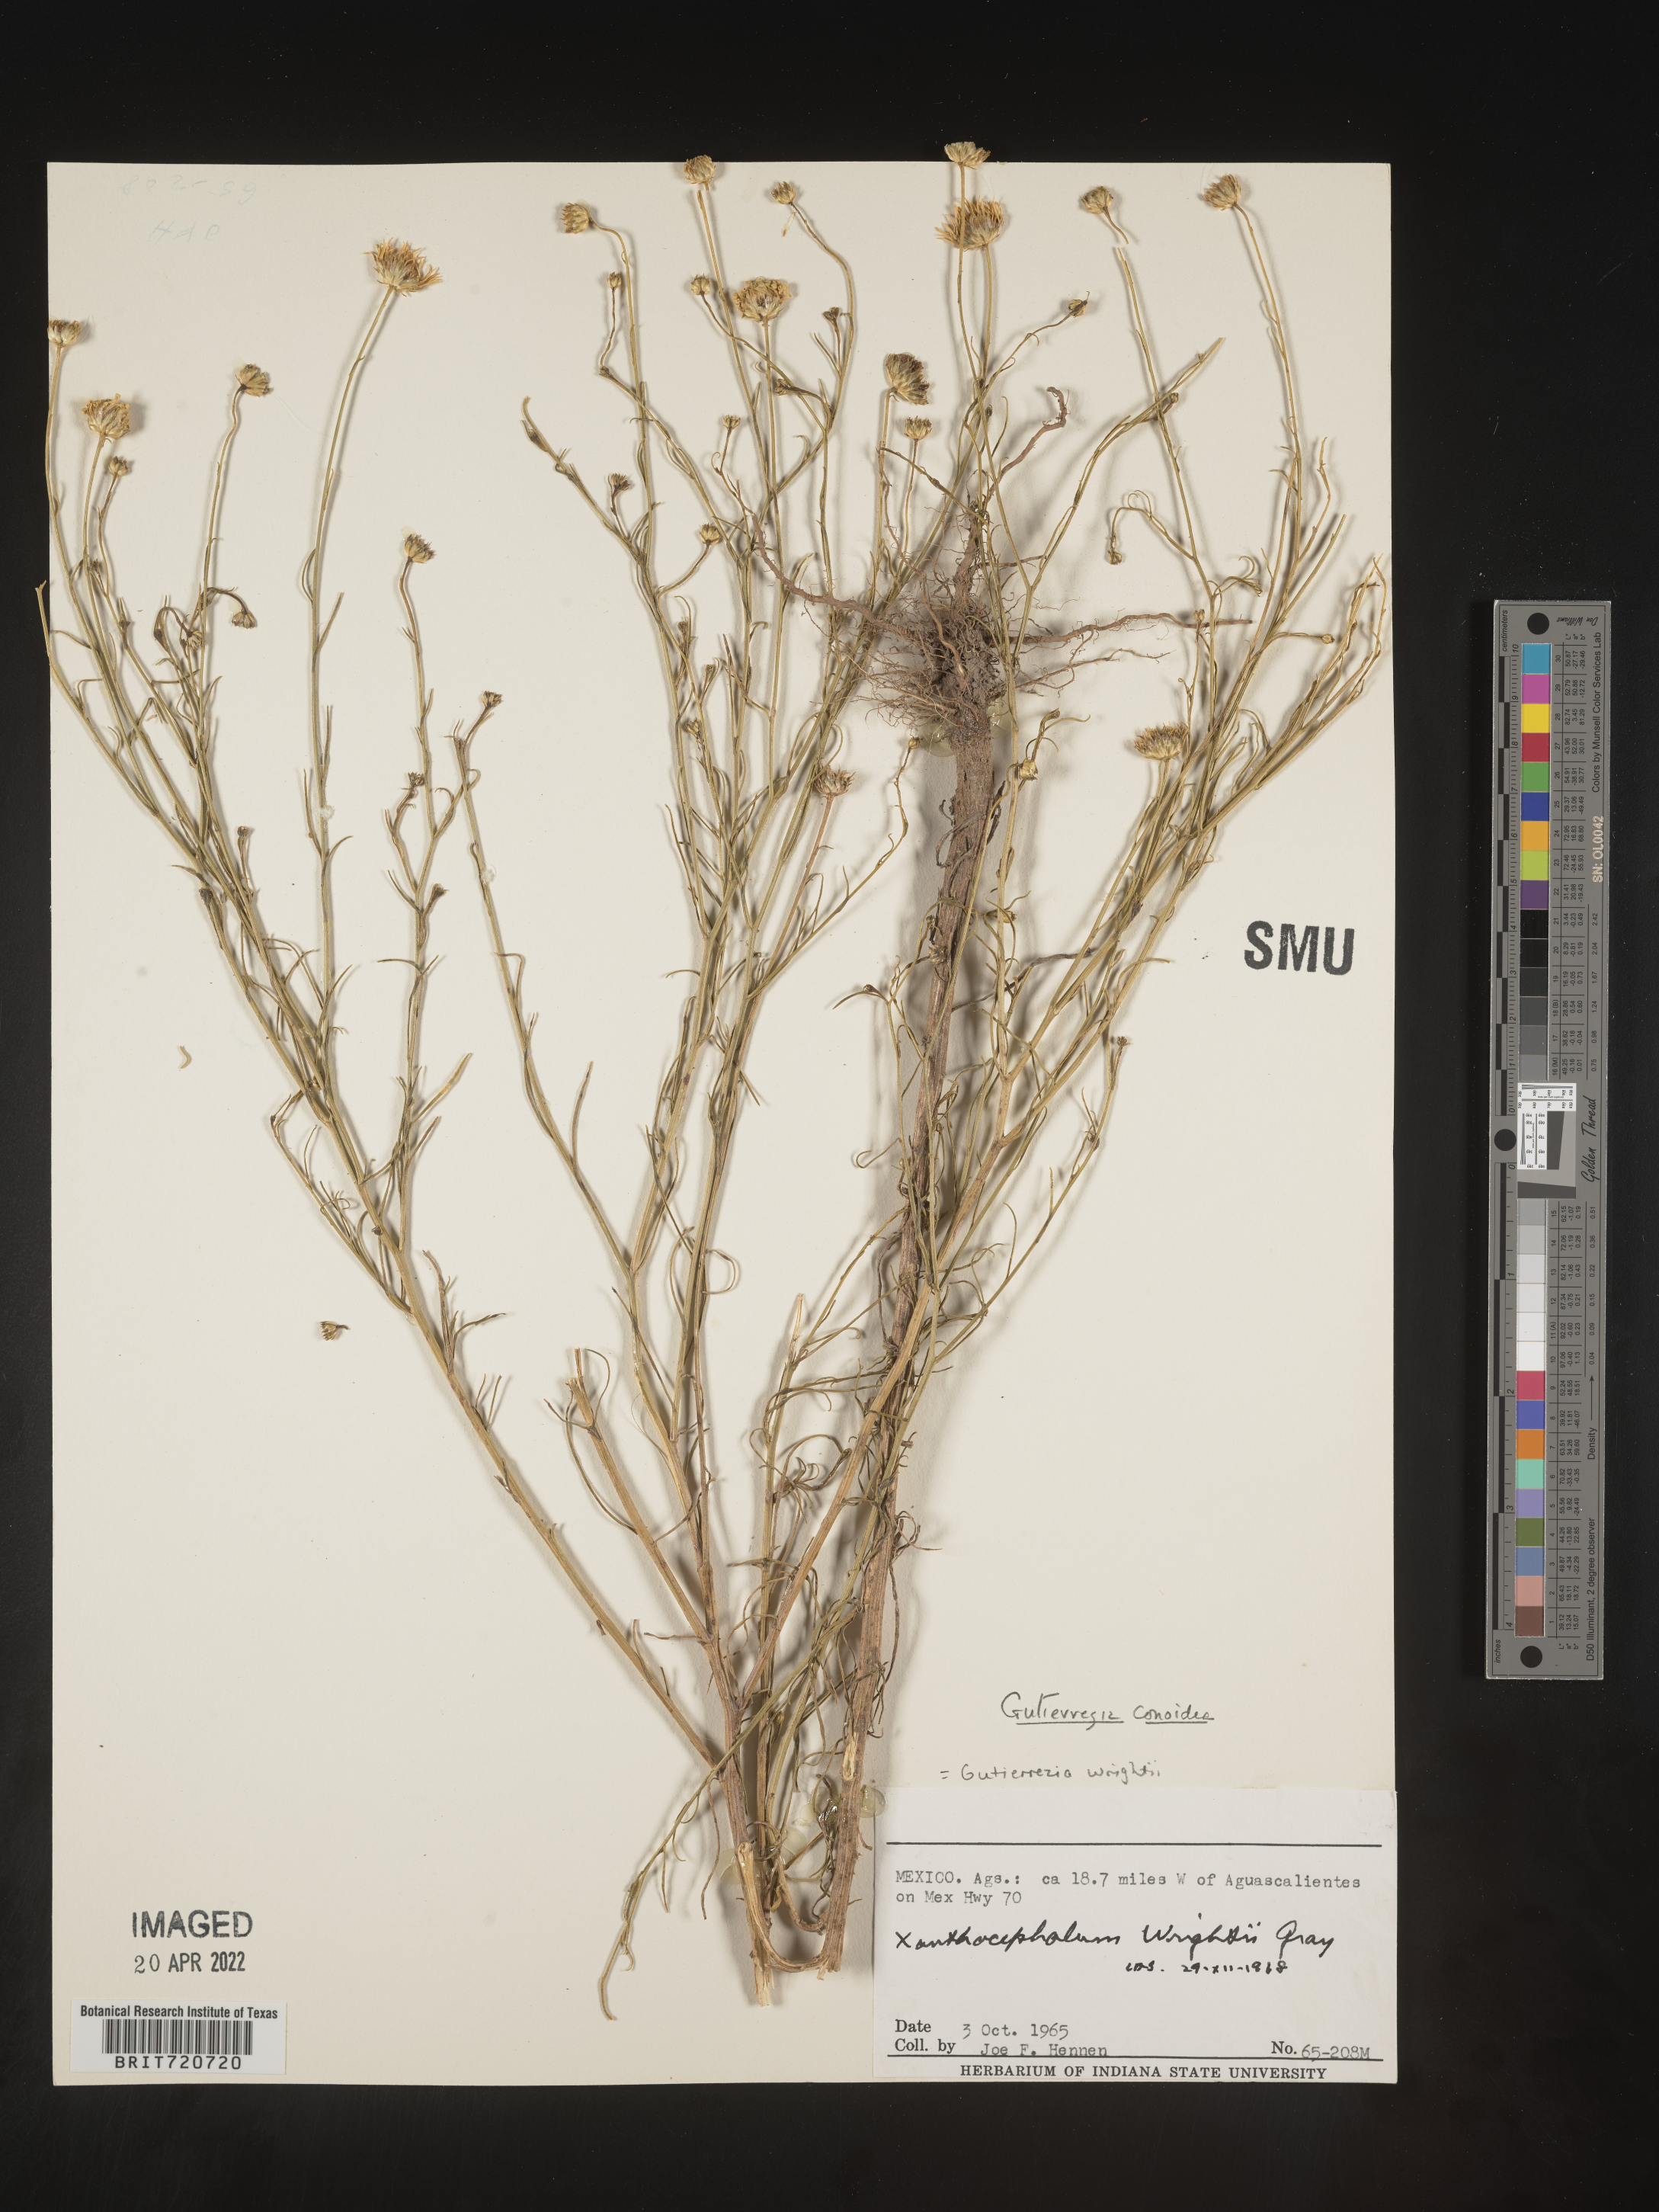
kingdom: Plantae
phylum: Tracheophyta
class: Magnoliopsida
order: Asterales
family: Asteraceae
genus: Gutierrezia
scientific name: Gutierrezia conoidea
